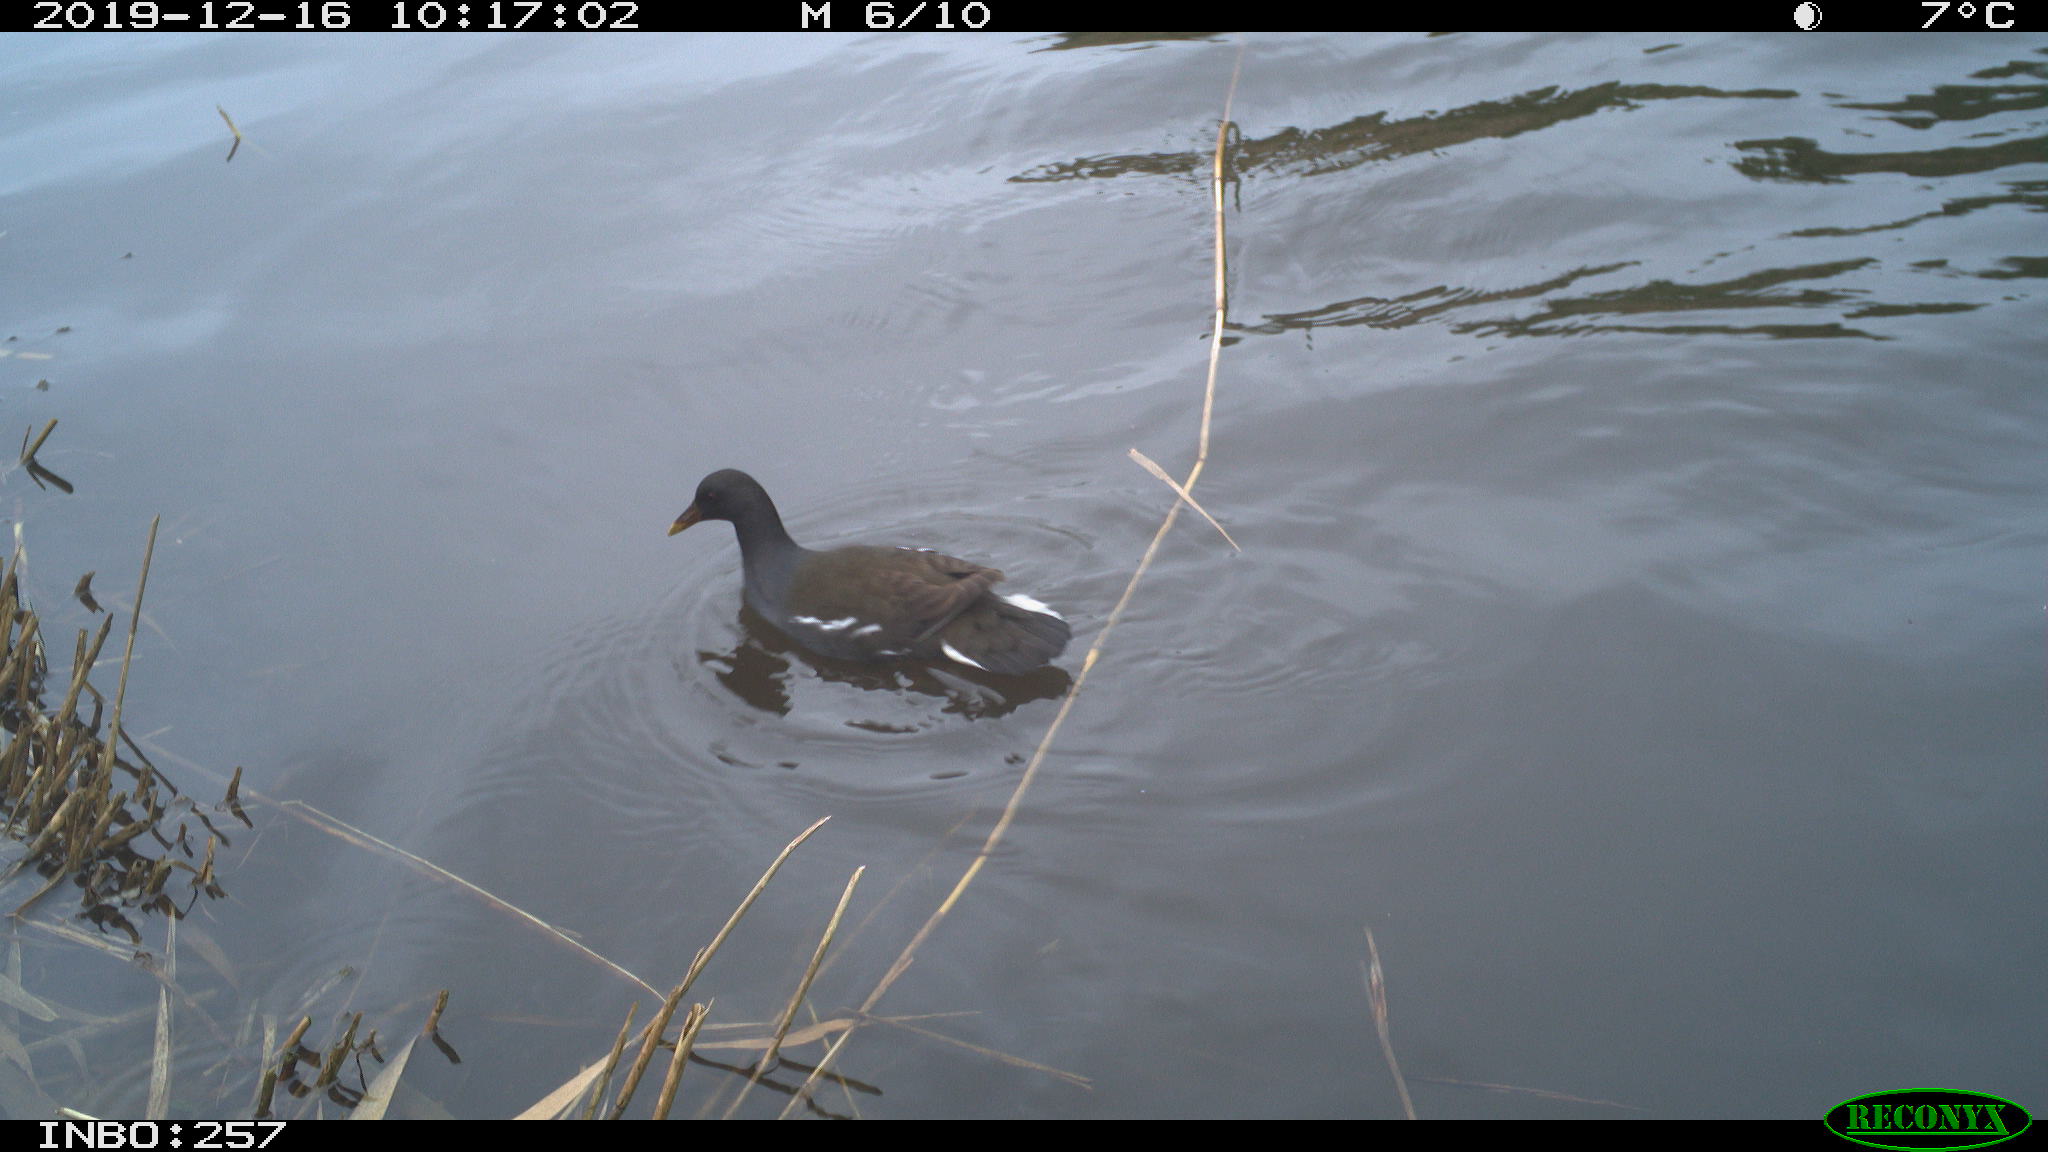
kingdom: Animalia
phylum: Chordata
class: Aves
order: Gruiformes
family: Rallidae
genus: Gallinula
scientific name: Gallinula chloropus
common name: Common moorhen
